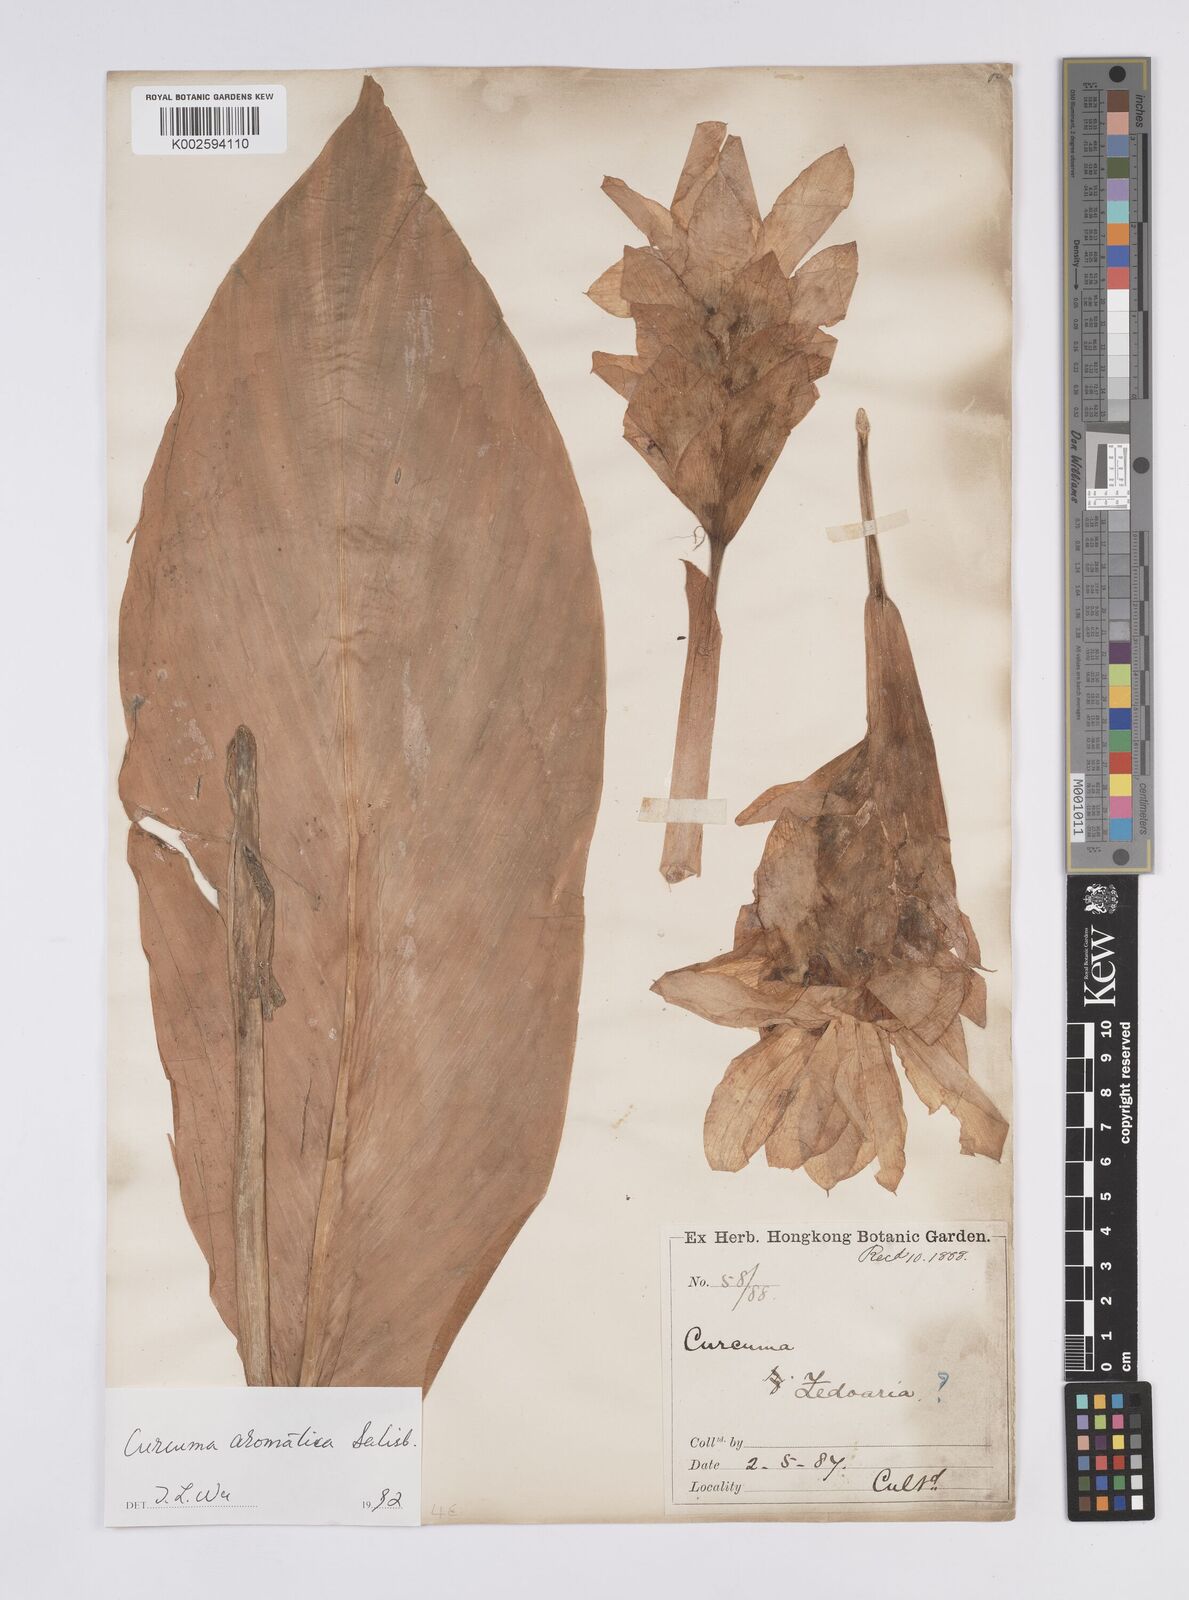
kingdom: Plantae
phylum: Tracheophyta
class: Liliopsida
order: Zingiberales
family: Zingiberaceae
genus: Curcuma
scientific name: Curcuma aromatica
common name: Wild turmeric
